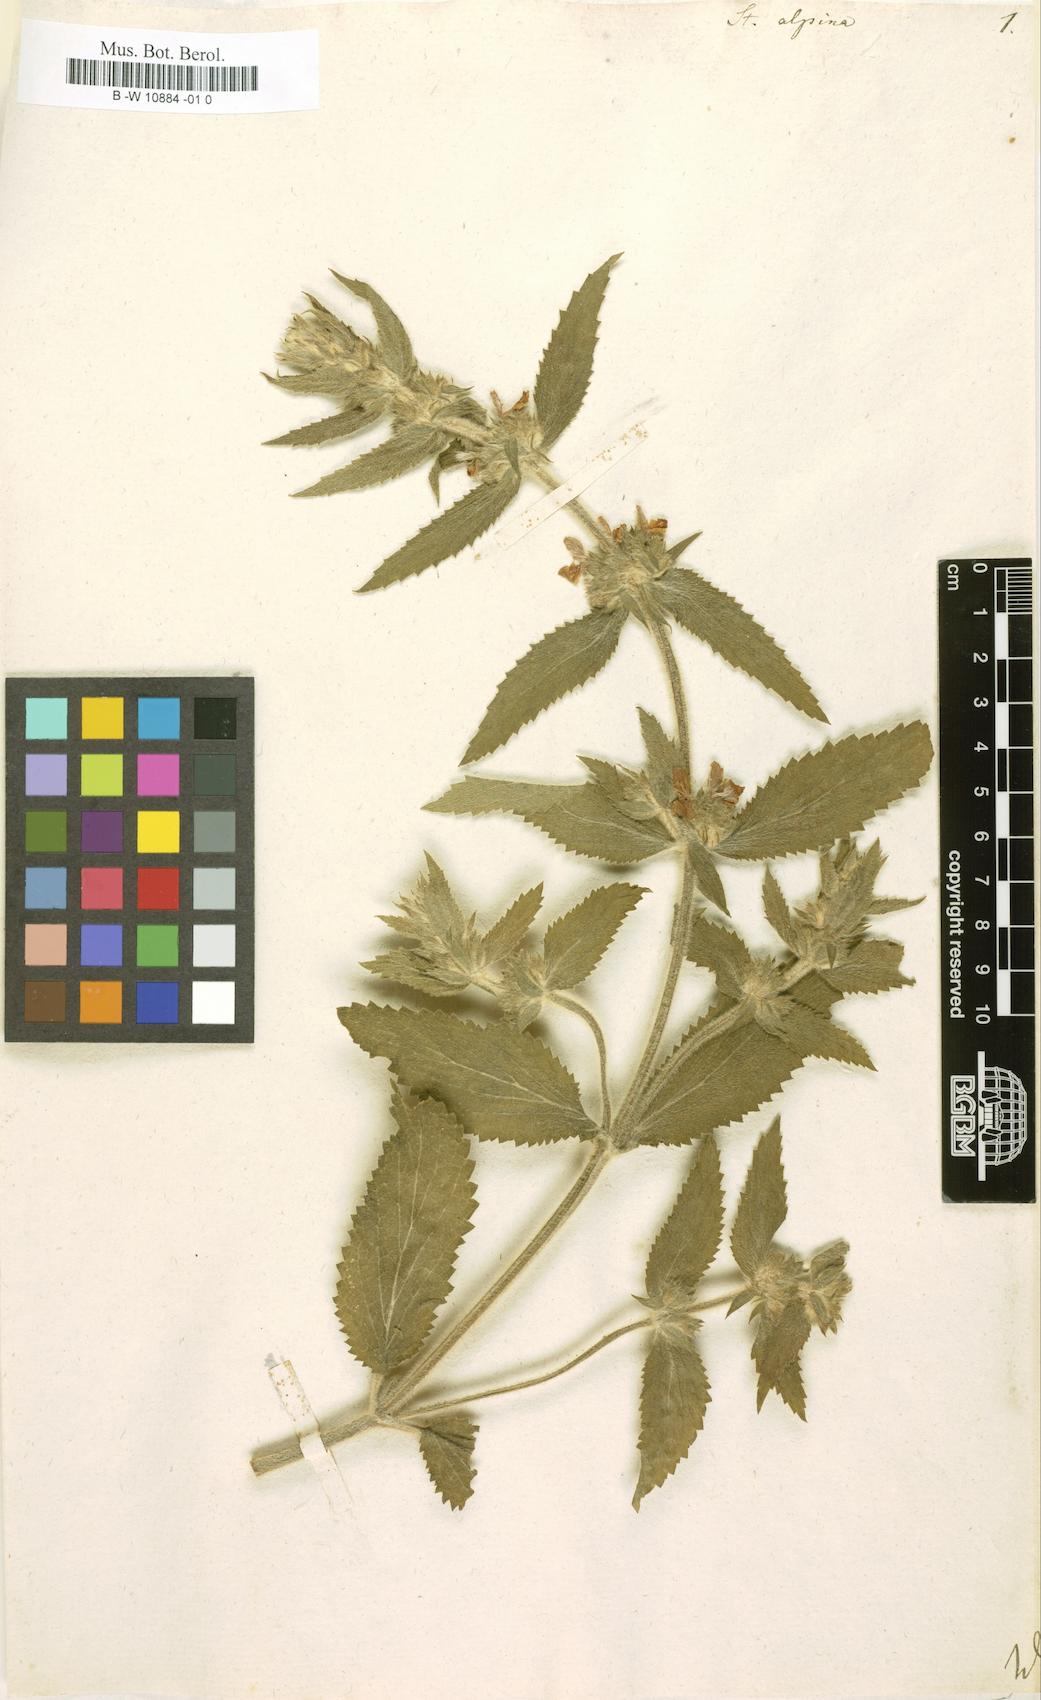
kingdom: Plantae
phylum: Tracheophyta
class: Magnoliopsida
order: Lamiales
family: Lamiaceae
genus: Stachys
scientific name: Stachys alpina
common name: Limestone woundwort
